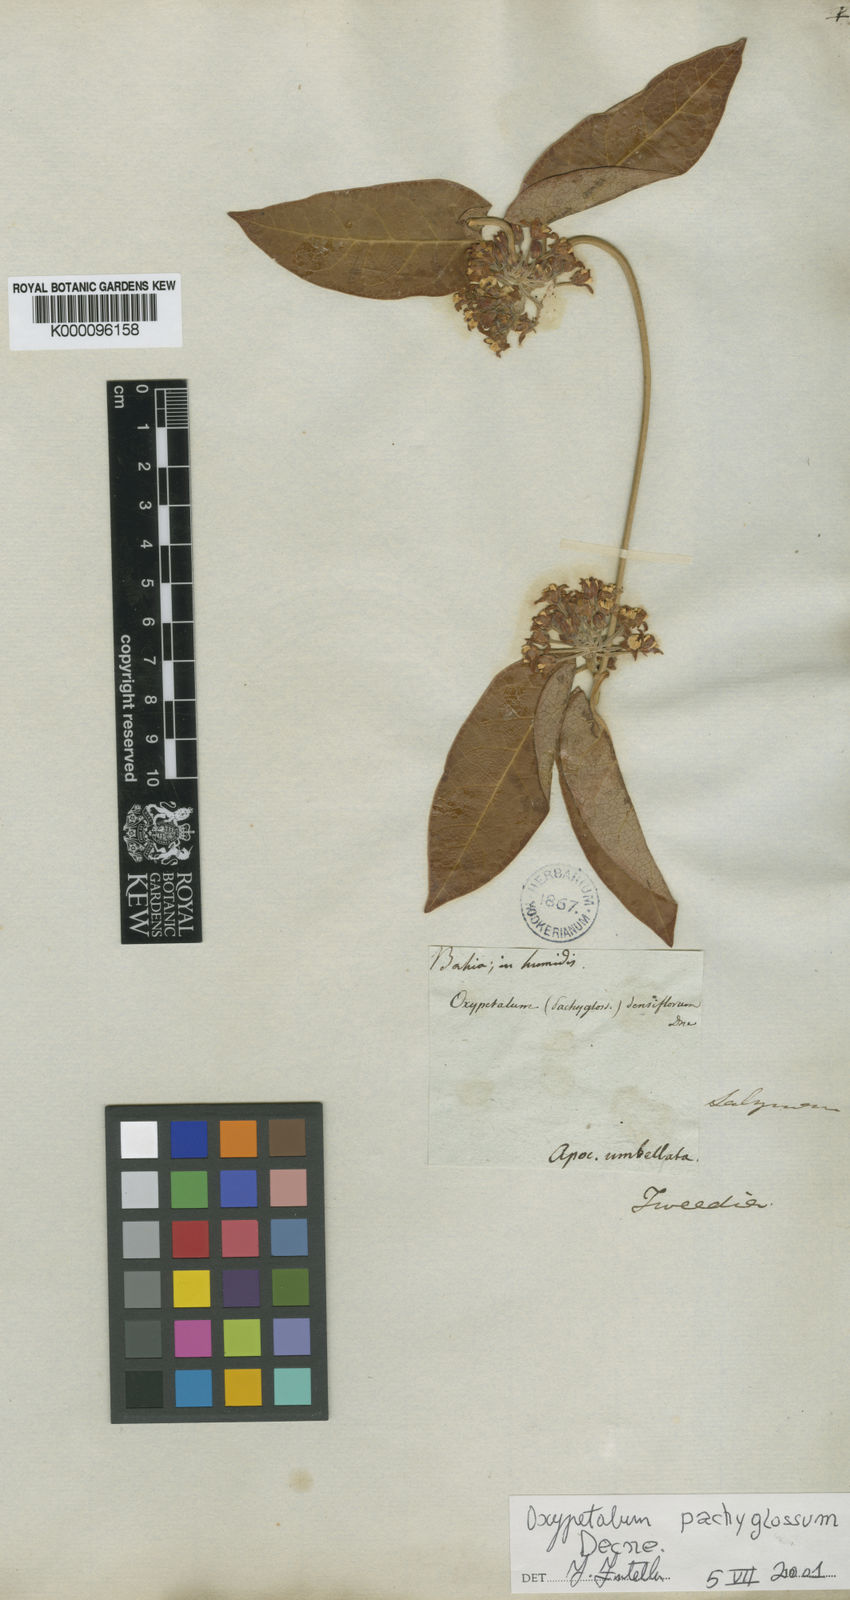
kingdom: Plantae
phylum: Tracheophyta
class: Magnoliopsida
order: Gentianales
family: Apocynaceae
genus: Oxypetalum
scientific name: Oxypetalum pachyglossum
